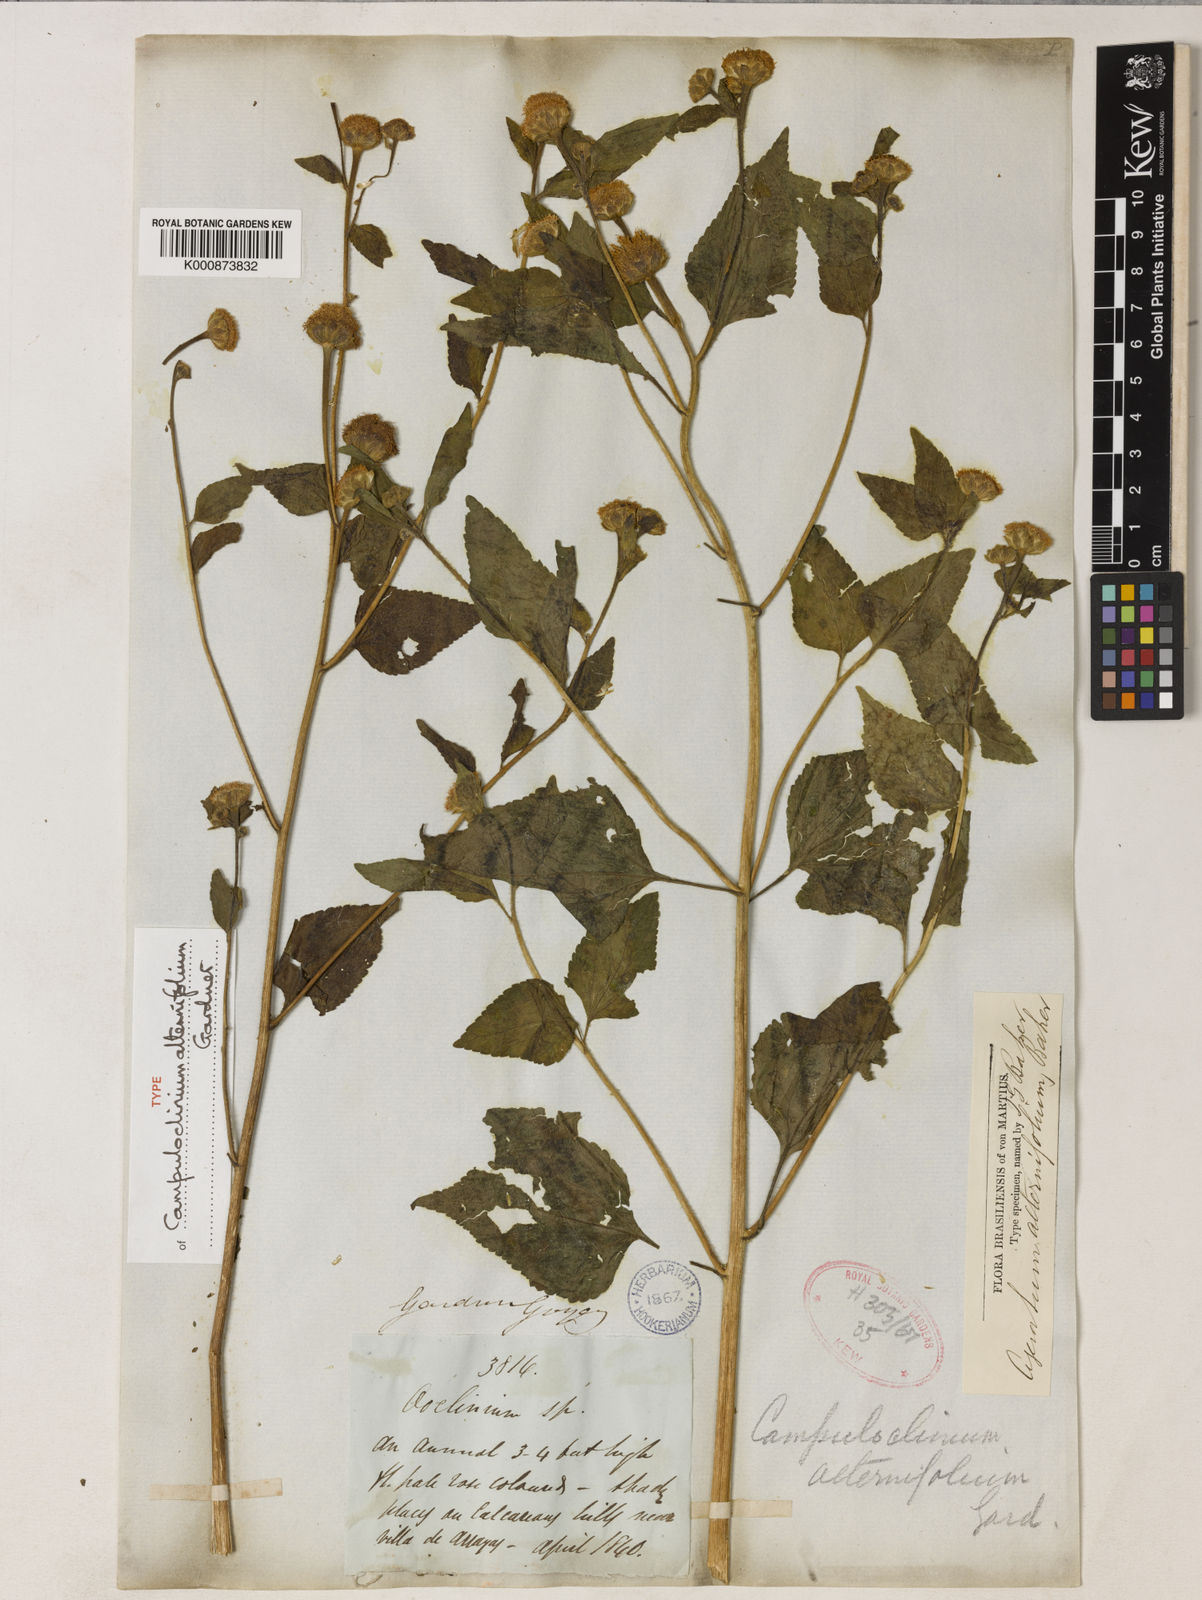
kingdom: Plantae
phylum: Tracheophyta
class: Magnoliopsida
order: Asterales
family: Asteraceae
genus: Campuloclinium
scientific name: Campuloclinium alternifolium
